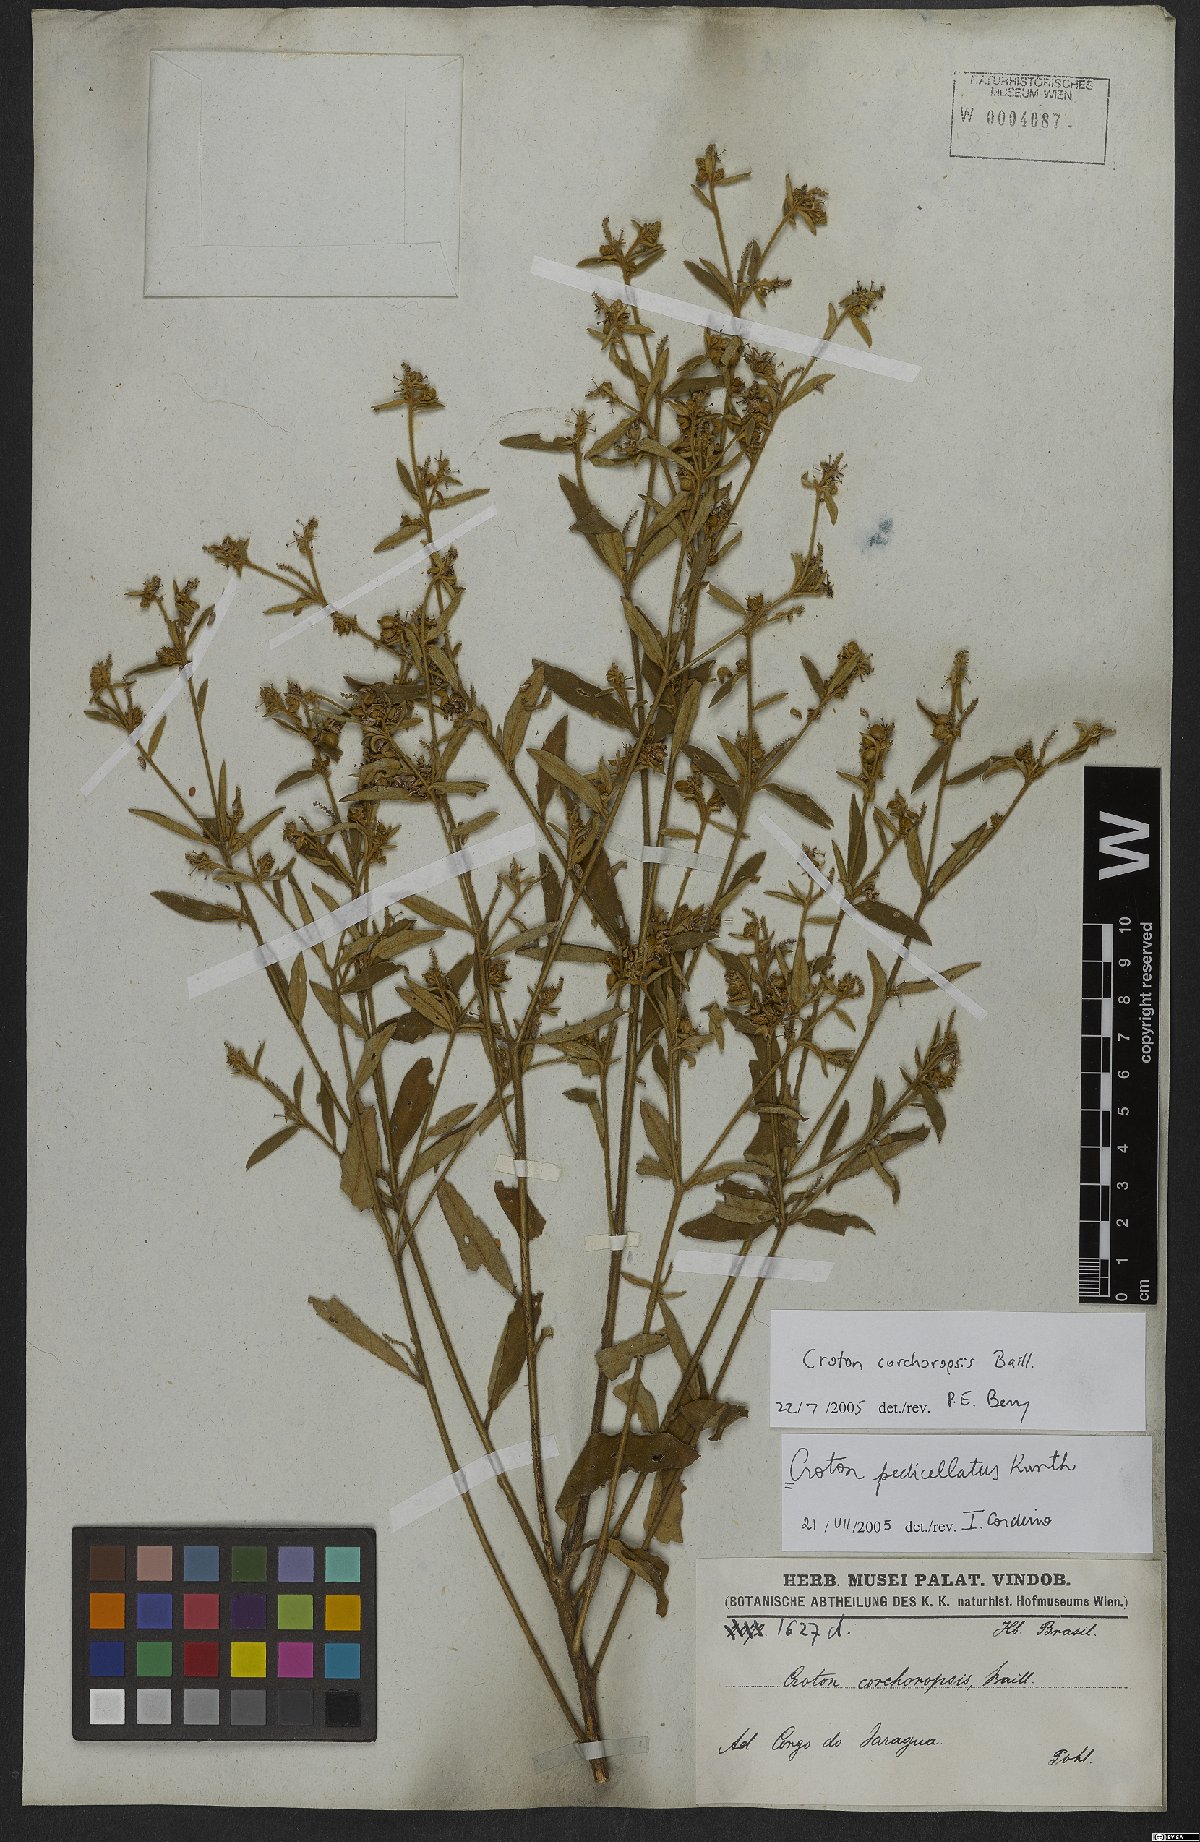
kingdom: Plantae
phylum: Tracheophyta
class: Magnoliopsida
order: Malpighiales
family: Euphorbiaceae
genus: Croton
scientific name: Croton corchoropsis
